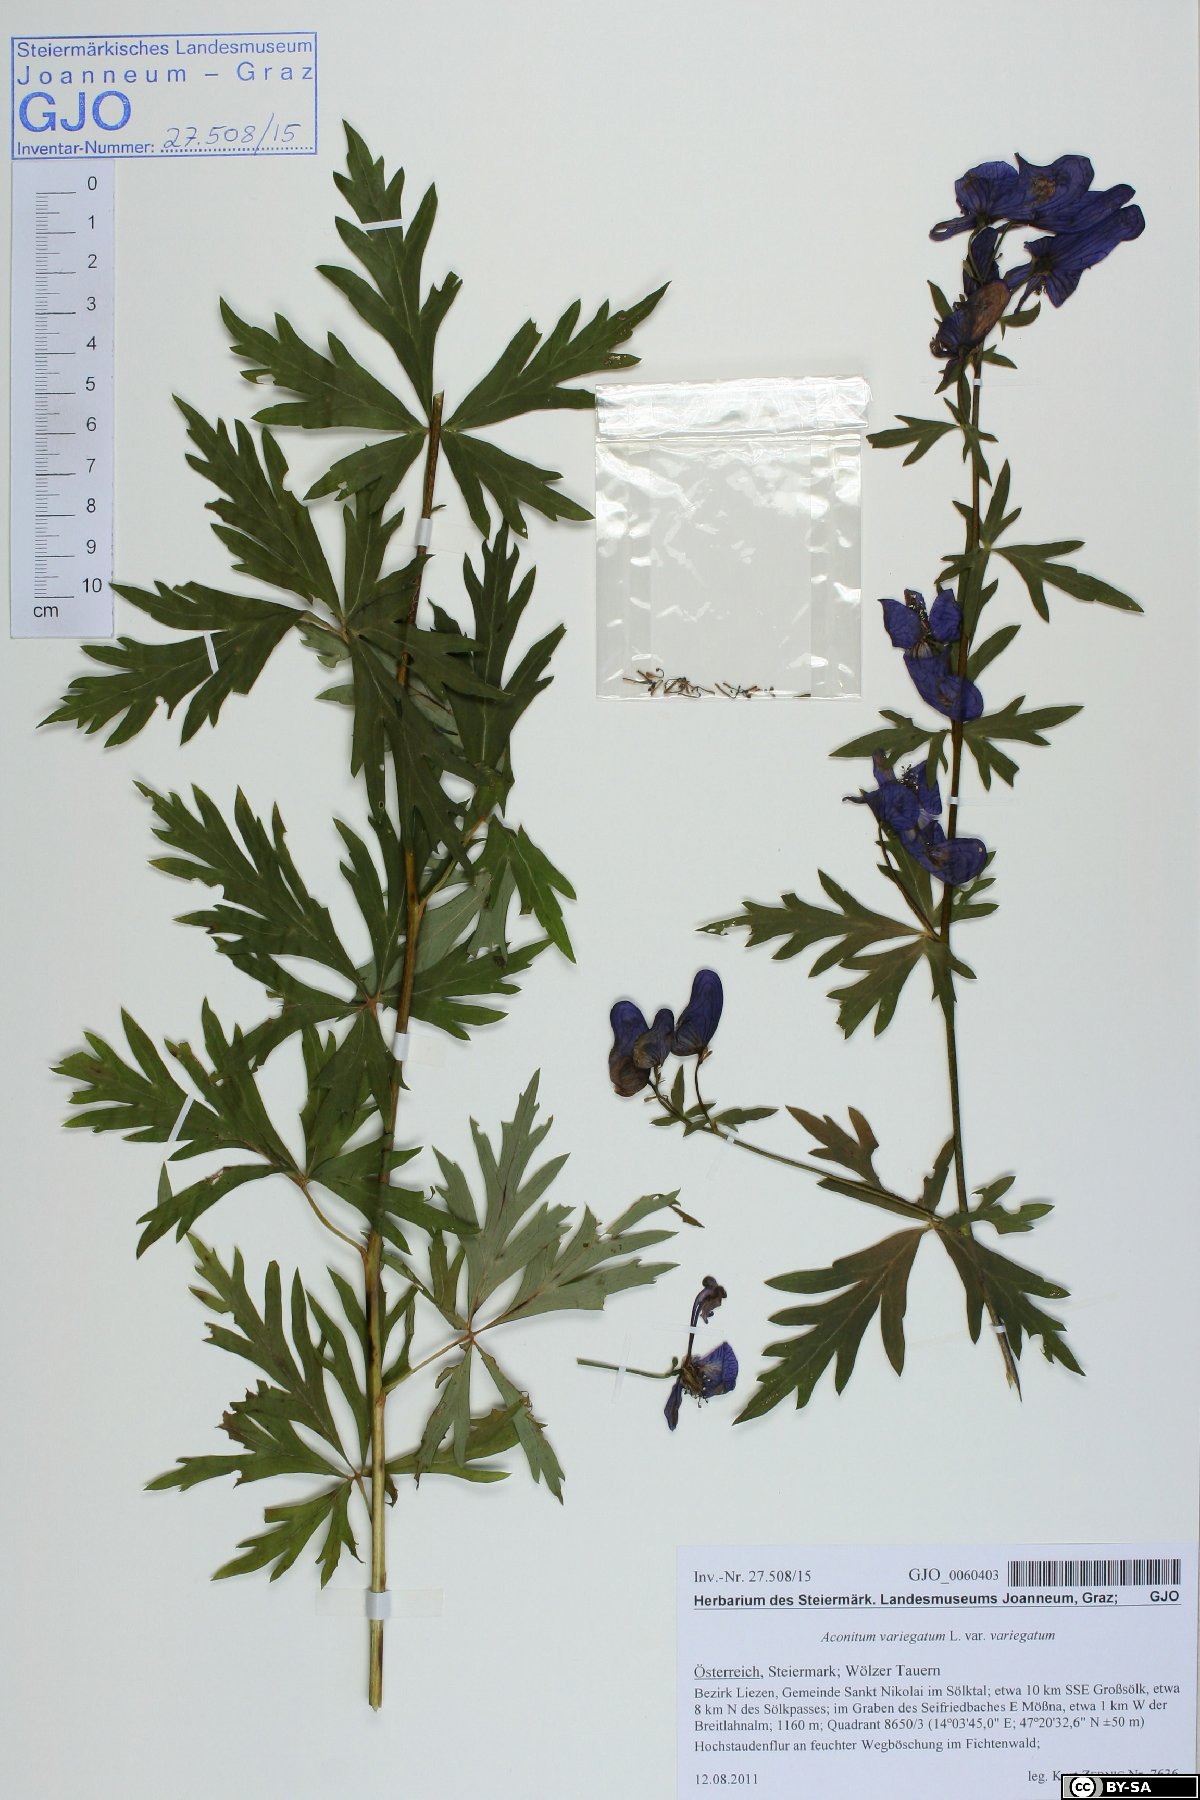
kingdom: Plantae
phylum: Tracheophyta
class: Magnoliopsida
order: Ranunculales
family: Ranunculaceae
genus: Aconitum
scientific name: Aconitum variegatum
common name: Manchurian monkshood
